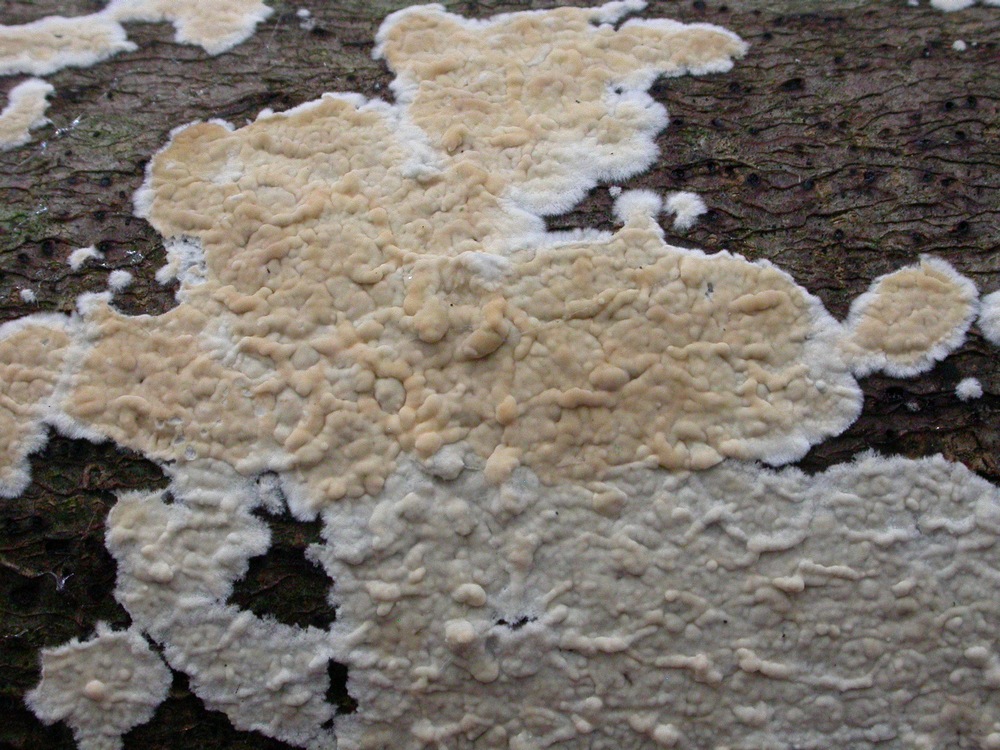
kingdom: Fungi
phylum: Basidiomycota
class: Agaricomycetes
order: Agaricales
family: Physalacriaceae
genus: Cylindrobasidium
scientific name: Cylindrobasidium evolvens
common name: sprækkehinde
